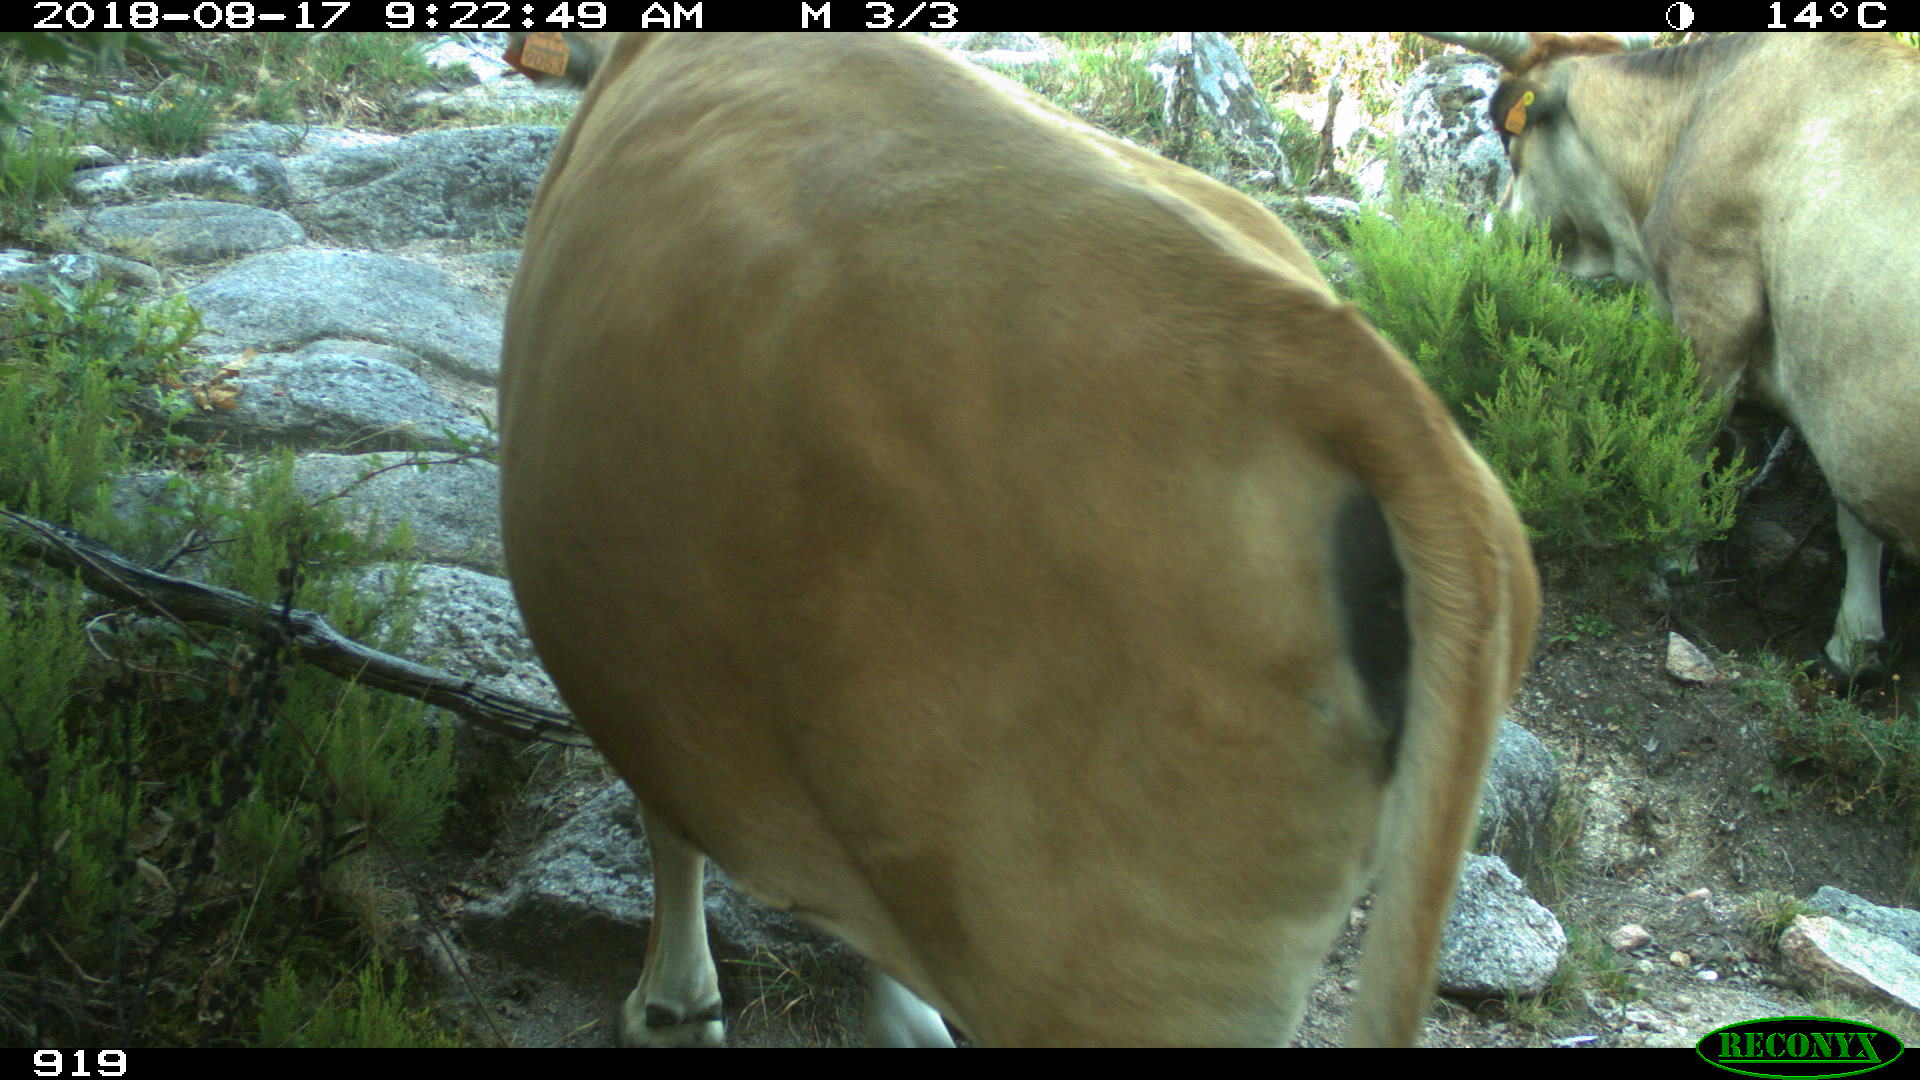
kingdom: Animalia
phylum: Chordata
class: Mammalia
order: Artiodactyla
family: Bovidae
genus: Bos
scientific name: Bos taurus
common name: Domesticated cattle
